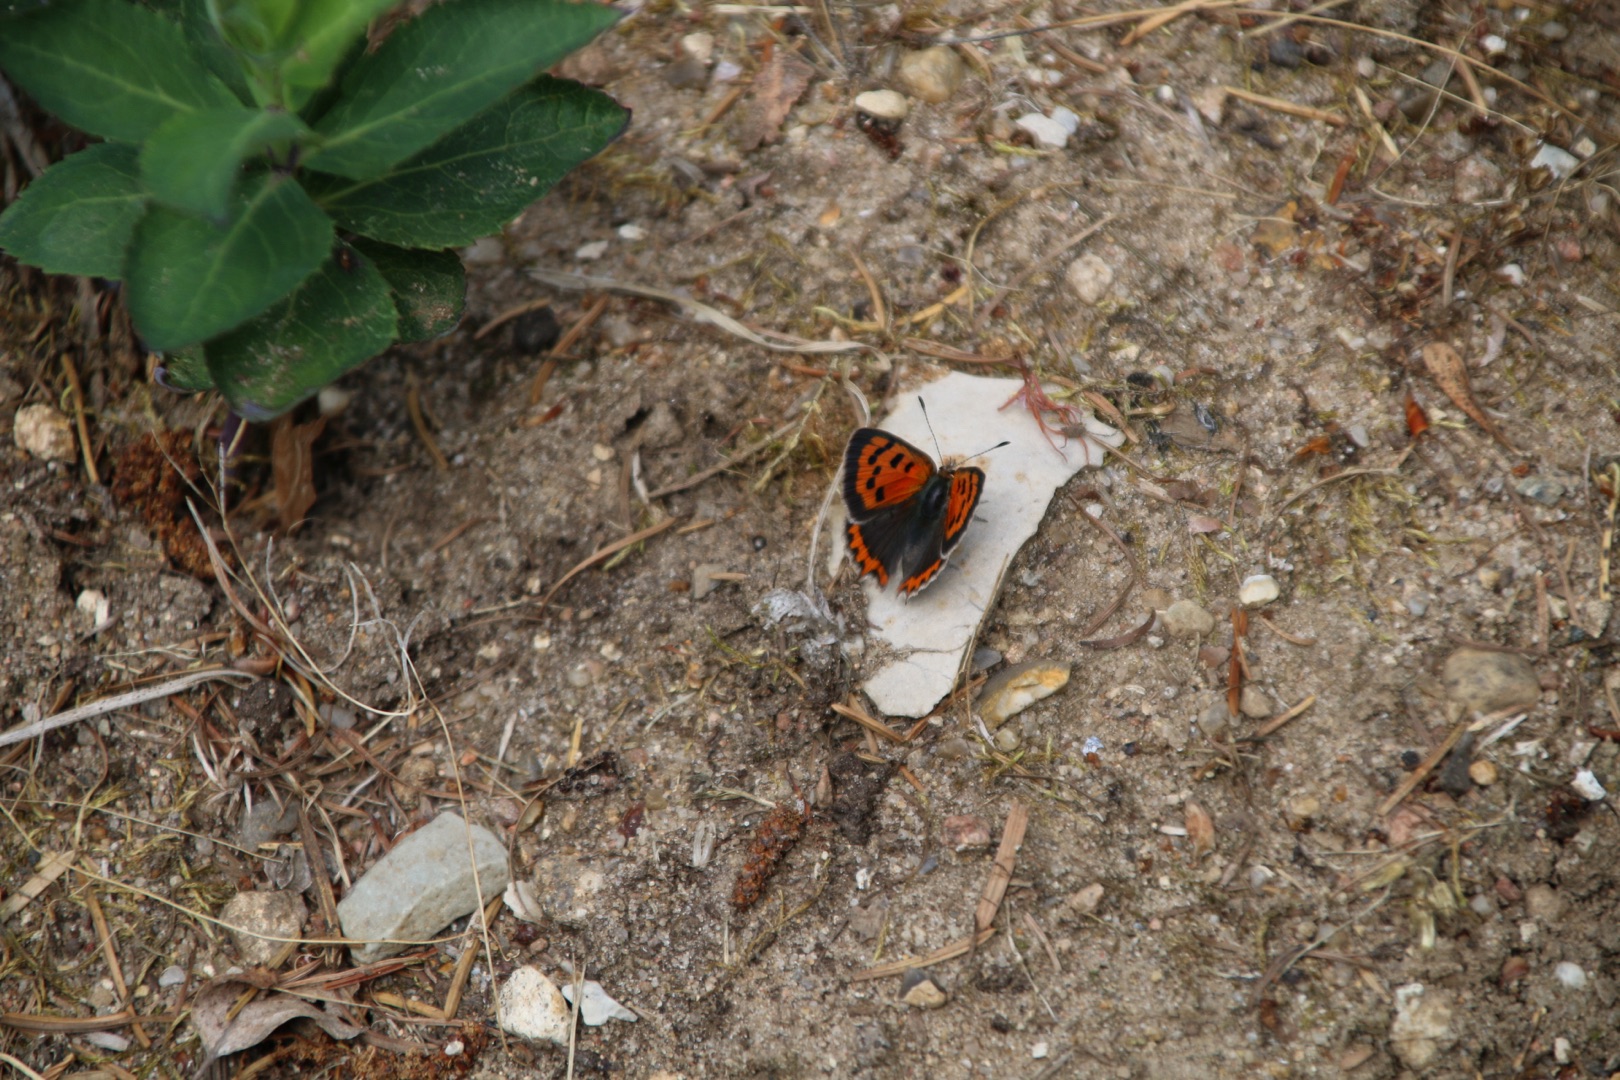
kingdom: Animalia
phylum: Arthropoda
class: Insecta
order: Lepidoptera
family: Lycaenidae
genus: Lycaena
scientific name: Lycaena phlaeas
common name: Lille ildfugl
